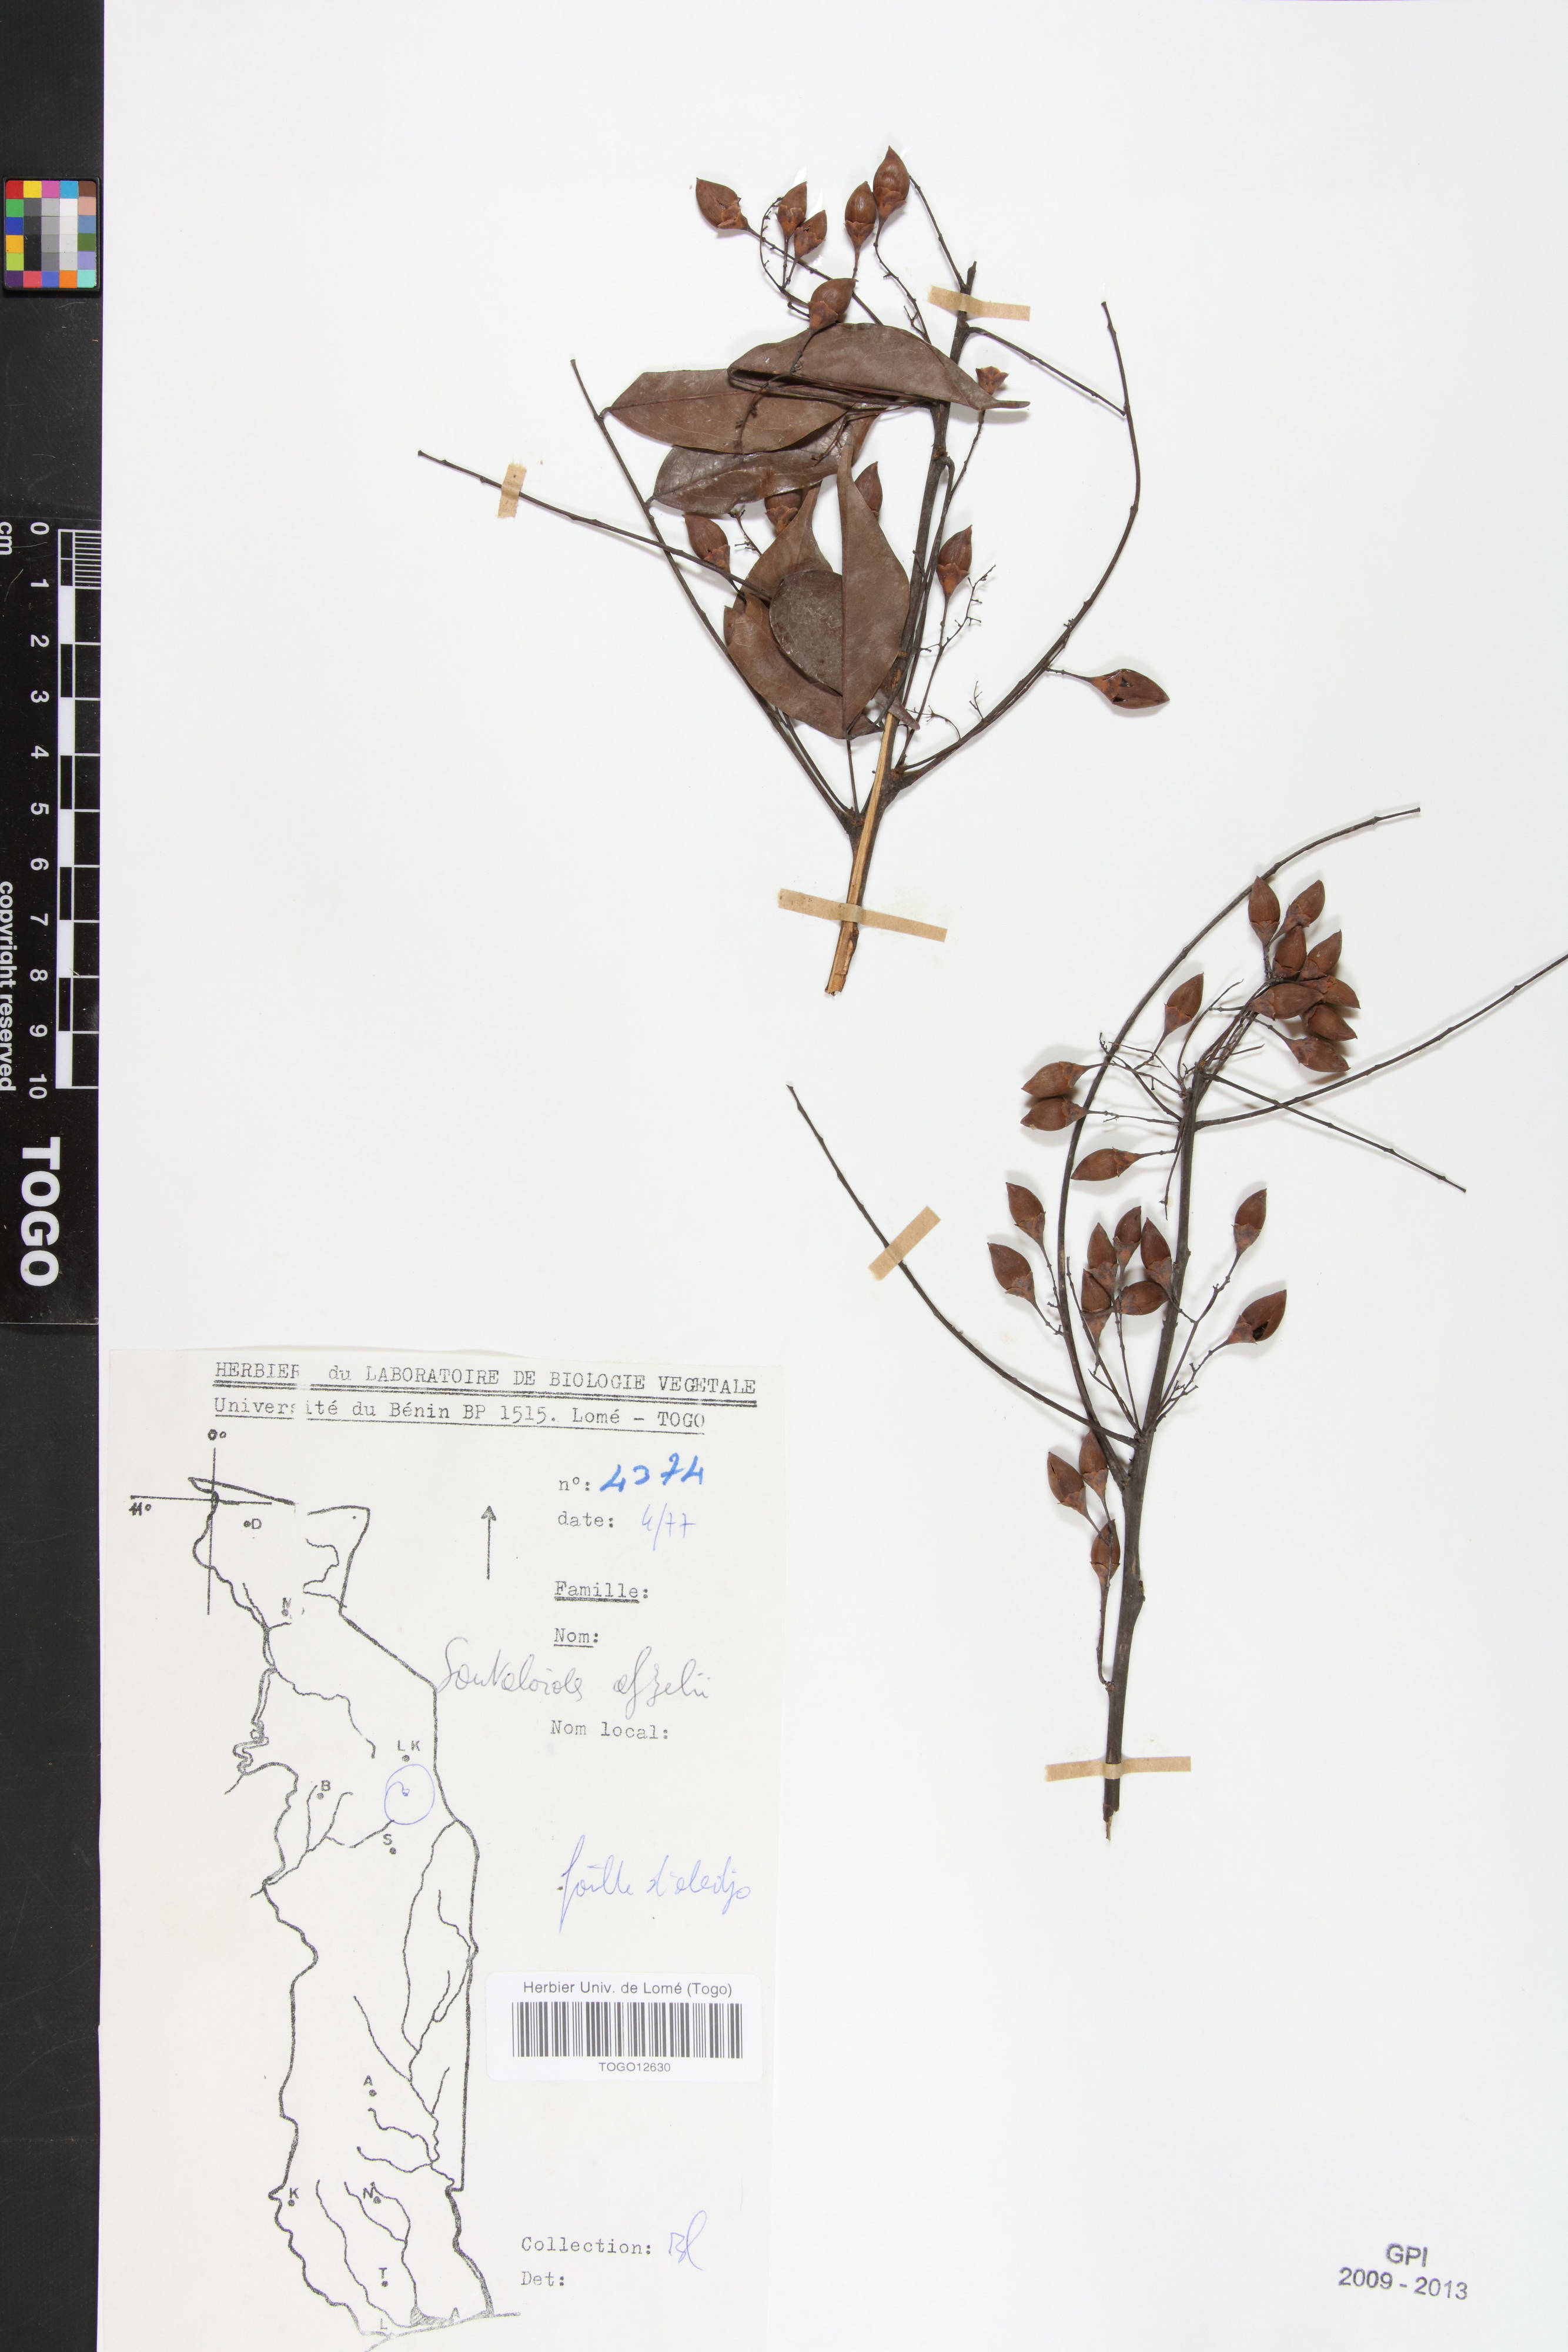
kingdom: Plantae
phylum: Tracheophyta
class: Magnoliopsida
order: Oxalidales
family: Connaraceae
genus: Rourea
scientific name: Rourea minor
